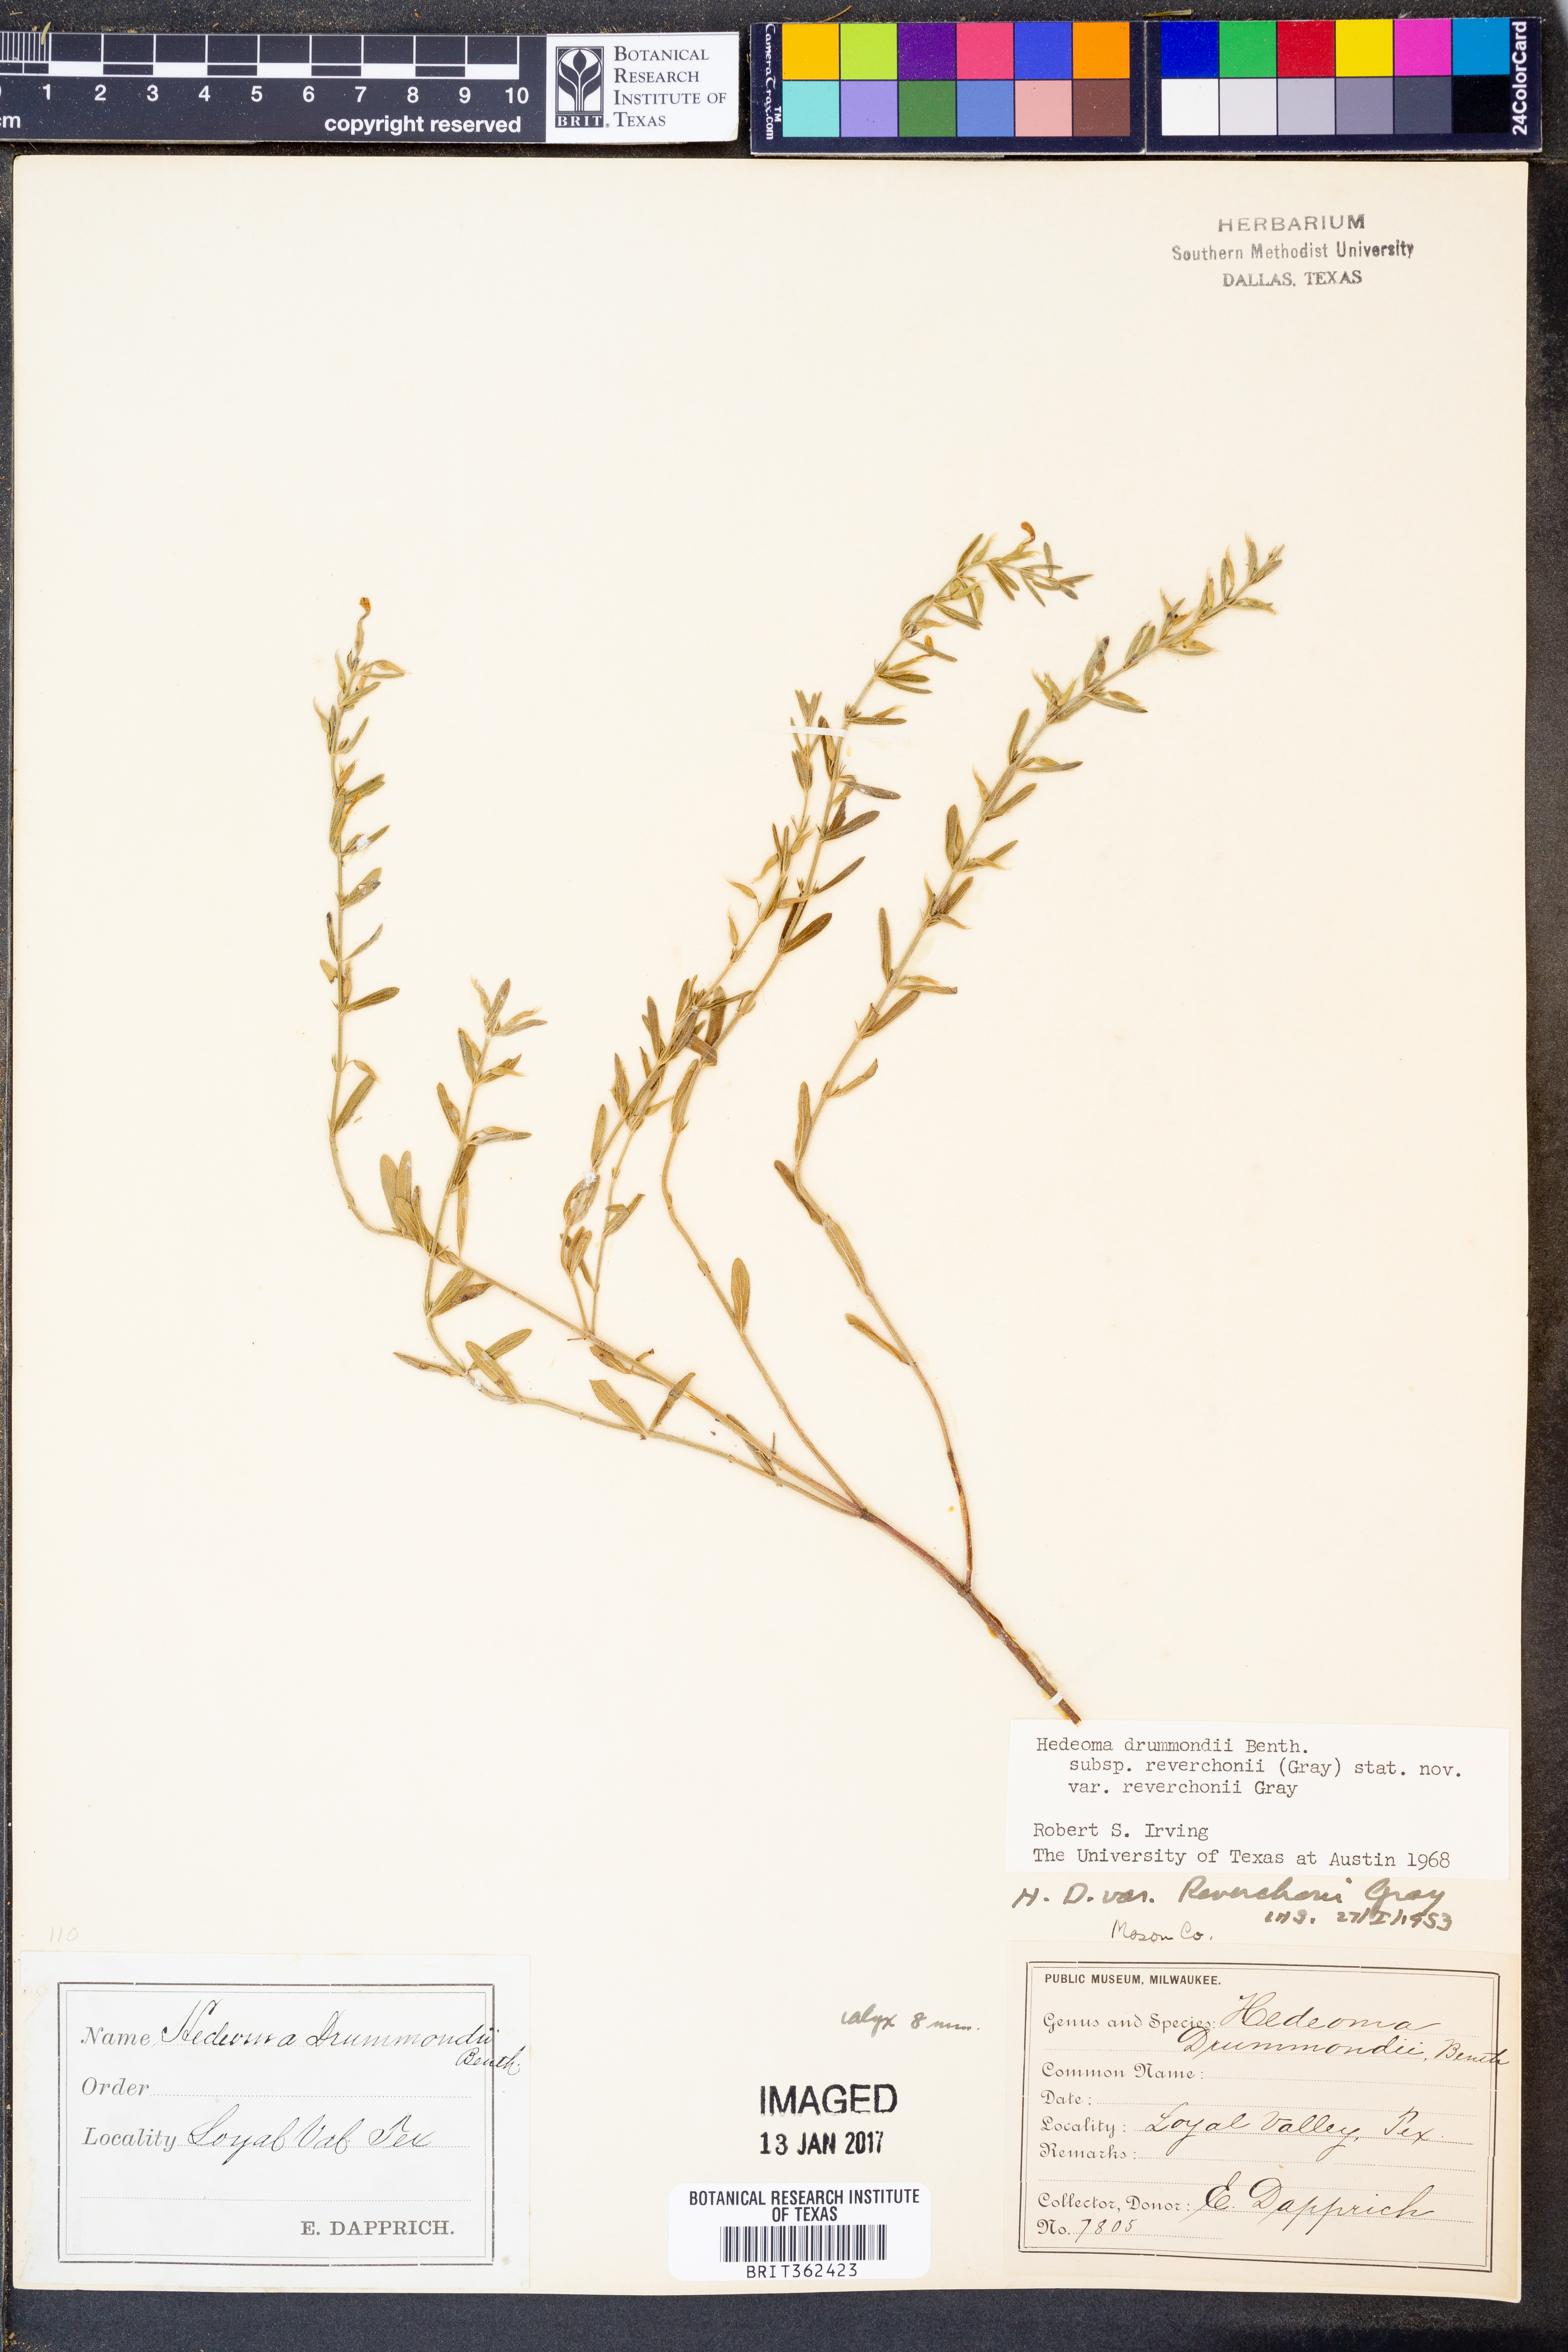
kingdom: Plantae
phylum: Tracheophyta
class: Magnoliopsida
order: Lamiales
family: Lamiaceae
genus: Hedeoma
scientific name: Hedeoma reverchonii
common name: Reverchon's false penny-royal
